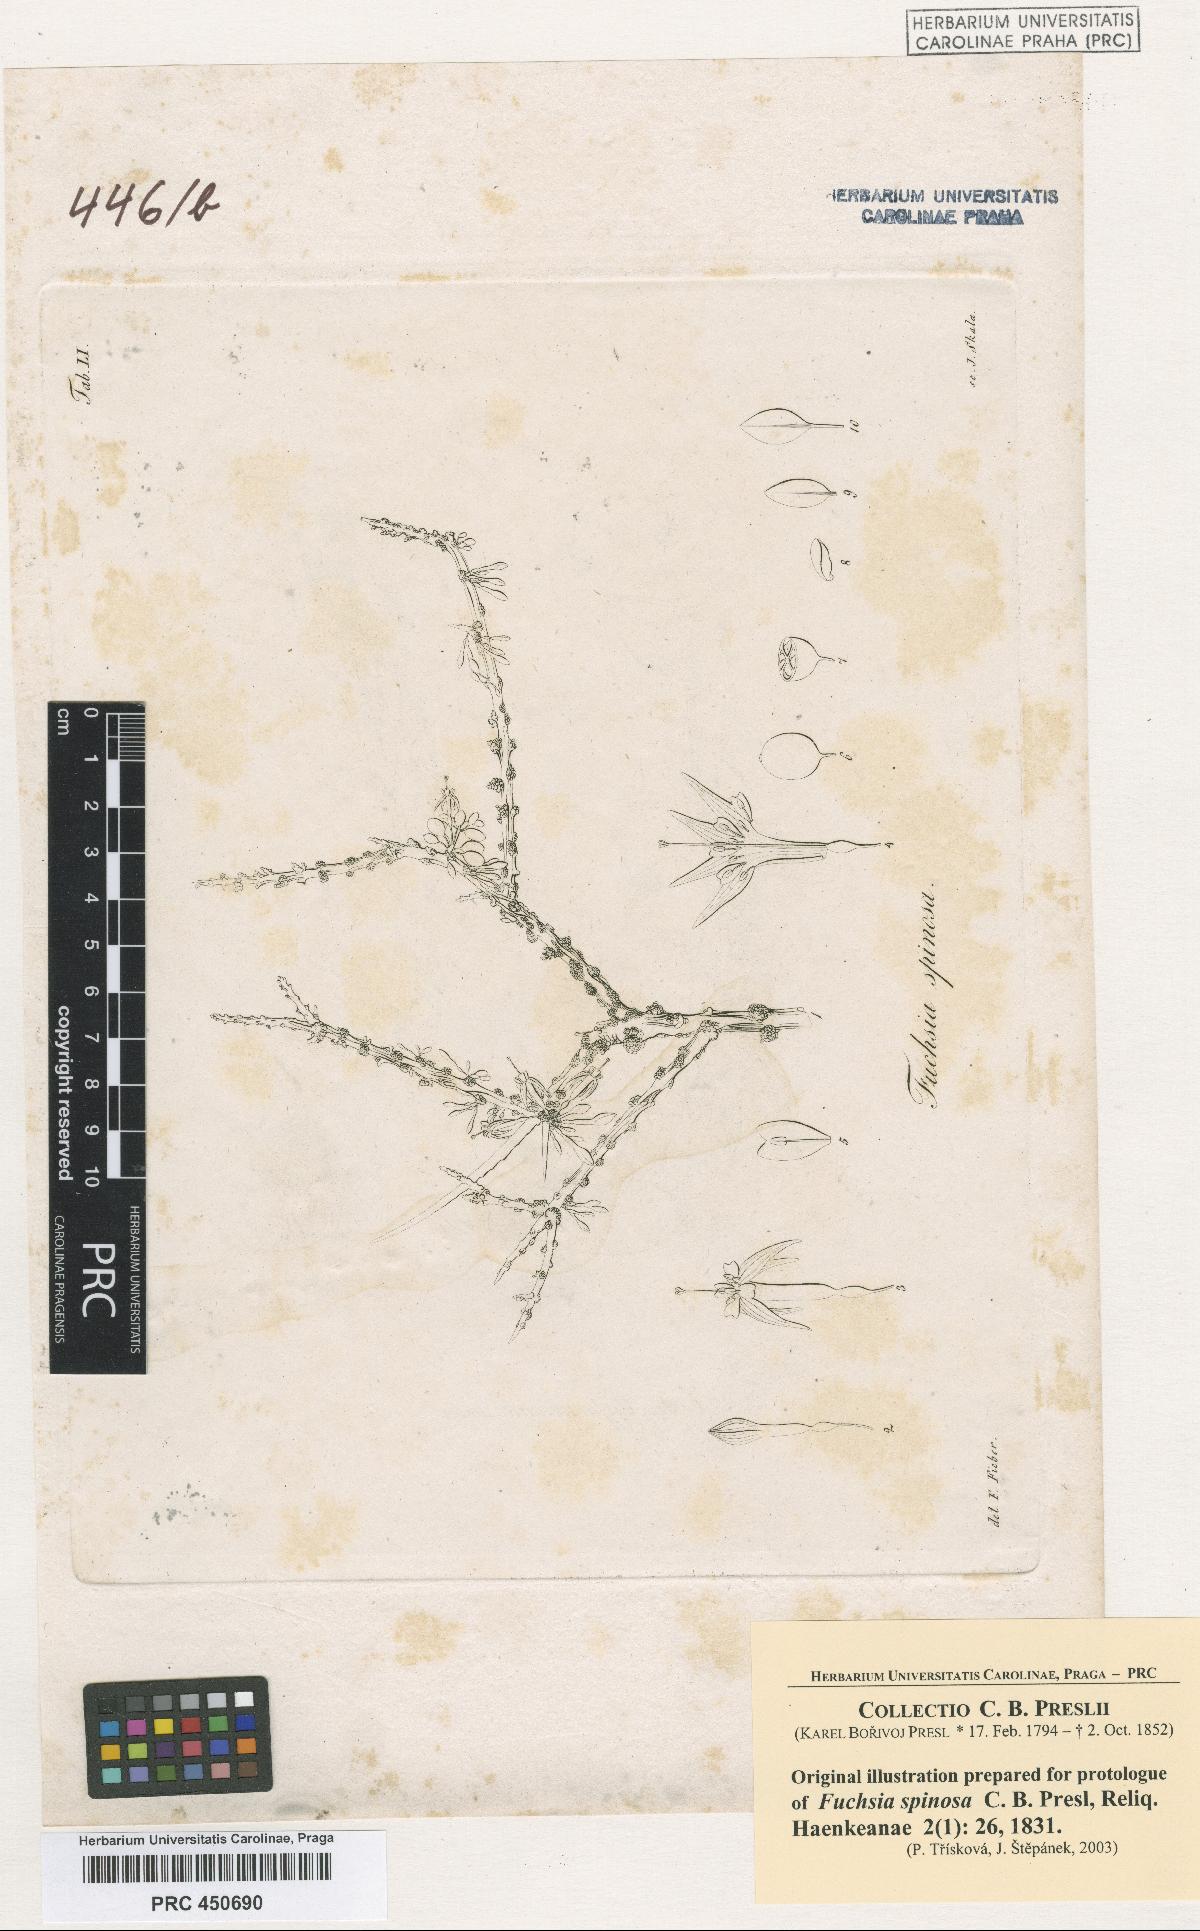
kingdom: Plantae
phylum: Tracheophyta
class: Magnoliopsida
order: Myrtales
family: Onagraceae
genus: Fuchsia
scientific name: Fuchsia lycioides
